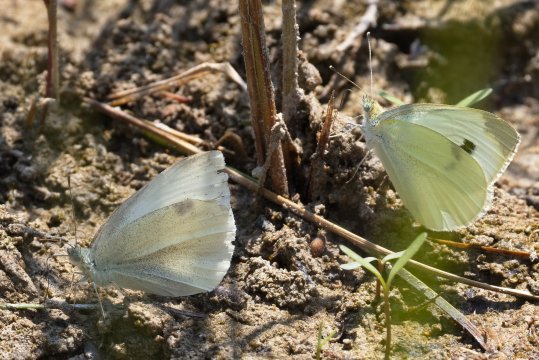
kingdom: Animalia
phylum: Arthropoda
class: Insecta
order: Lepidoptera
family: Pieridae
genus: Pieris
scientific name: Pieris rapae
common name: Cabbage White
